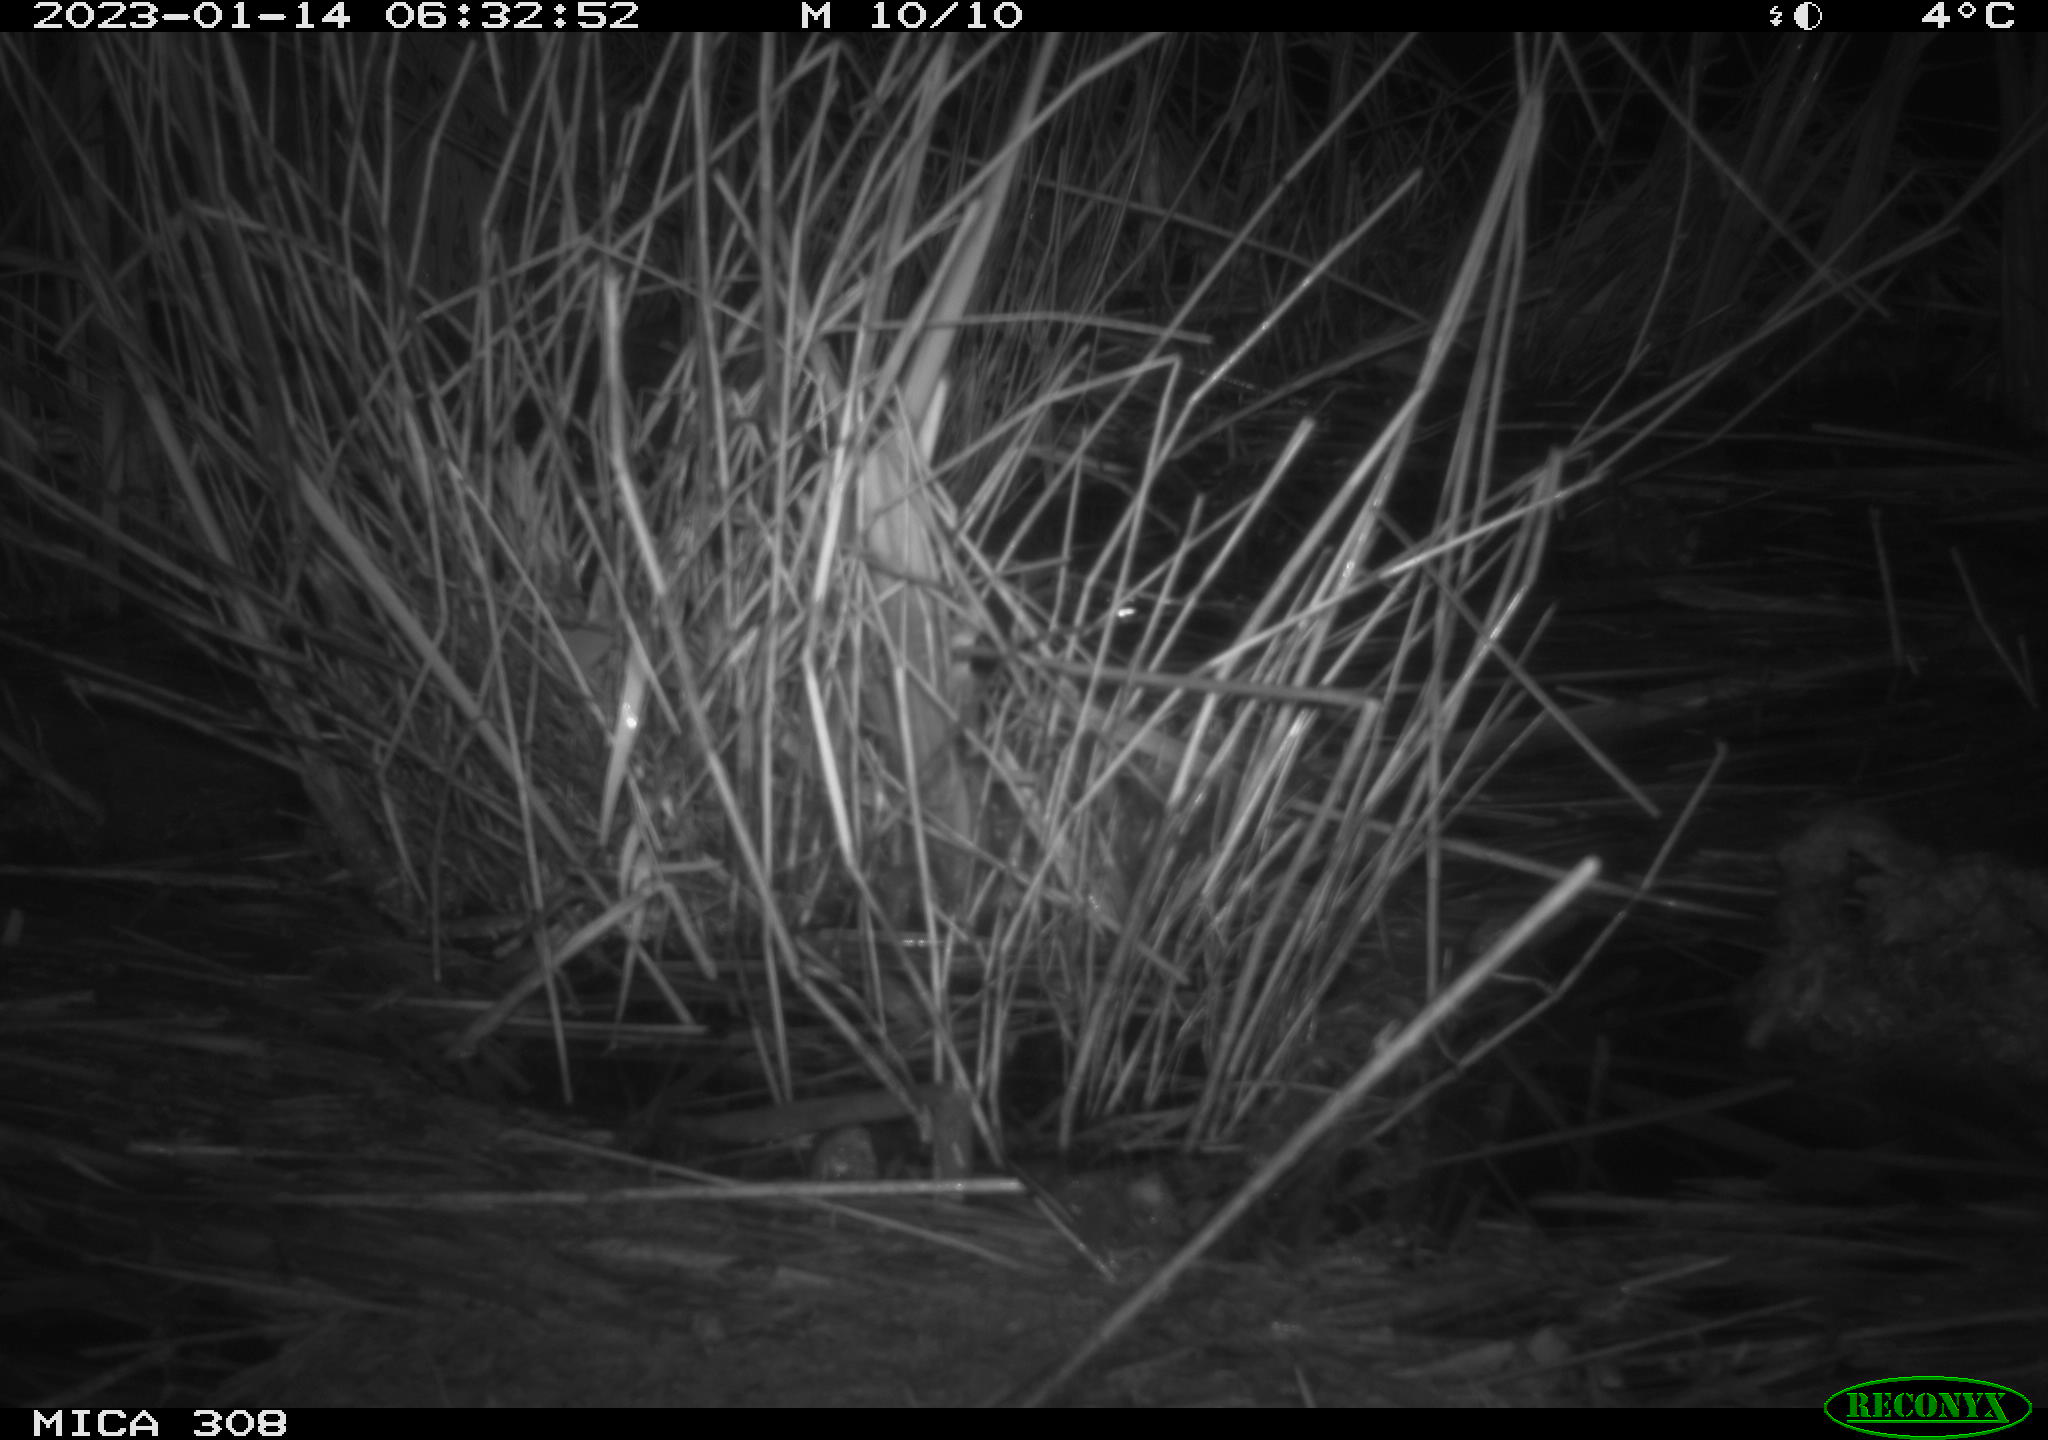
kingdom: Animalia
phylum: Chordata
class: Mammalia
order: Rodentia
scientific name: Rodentia
